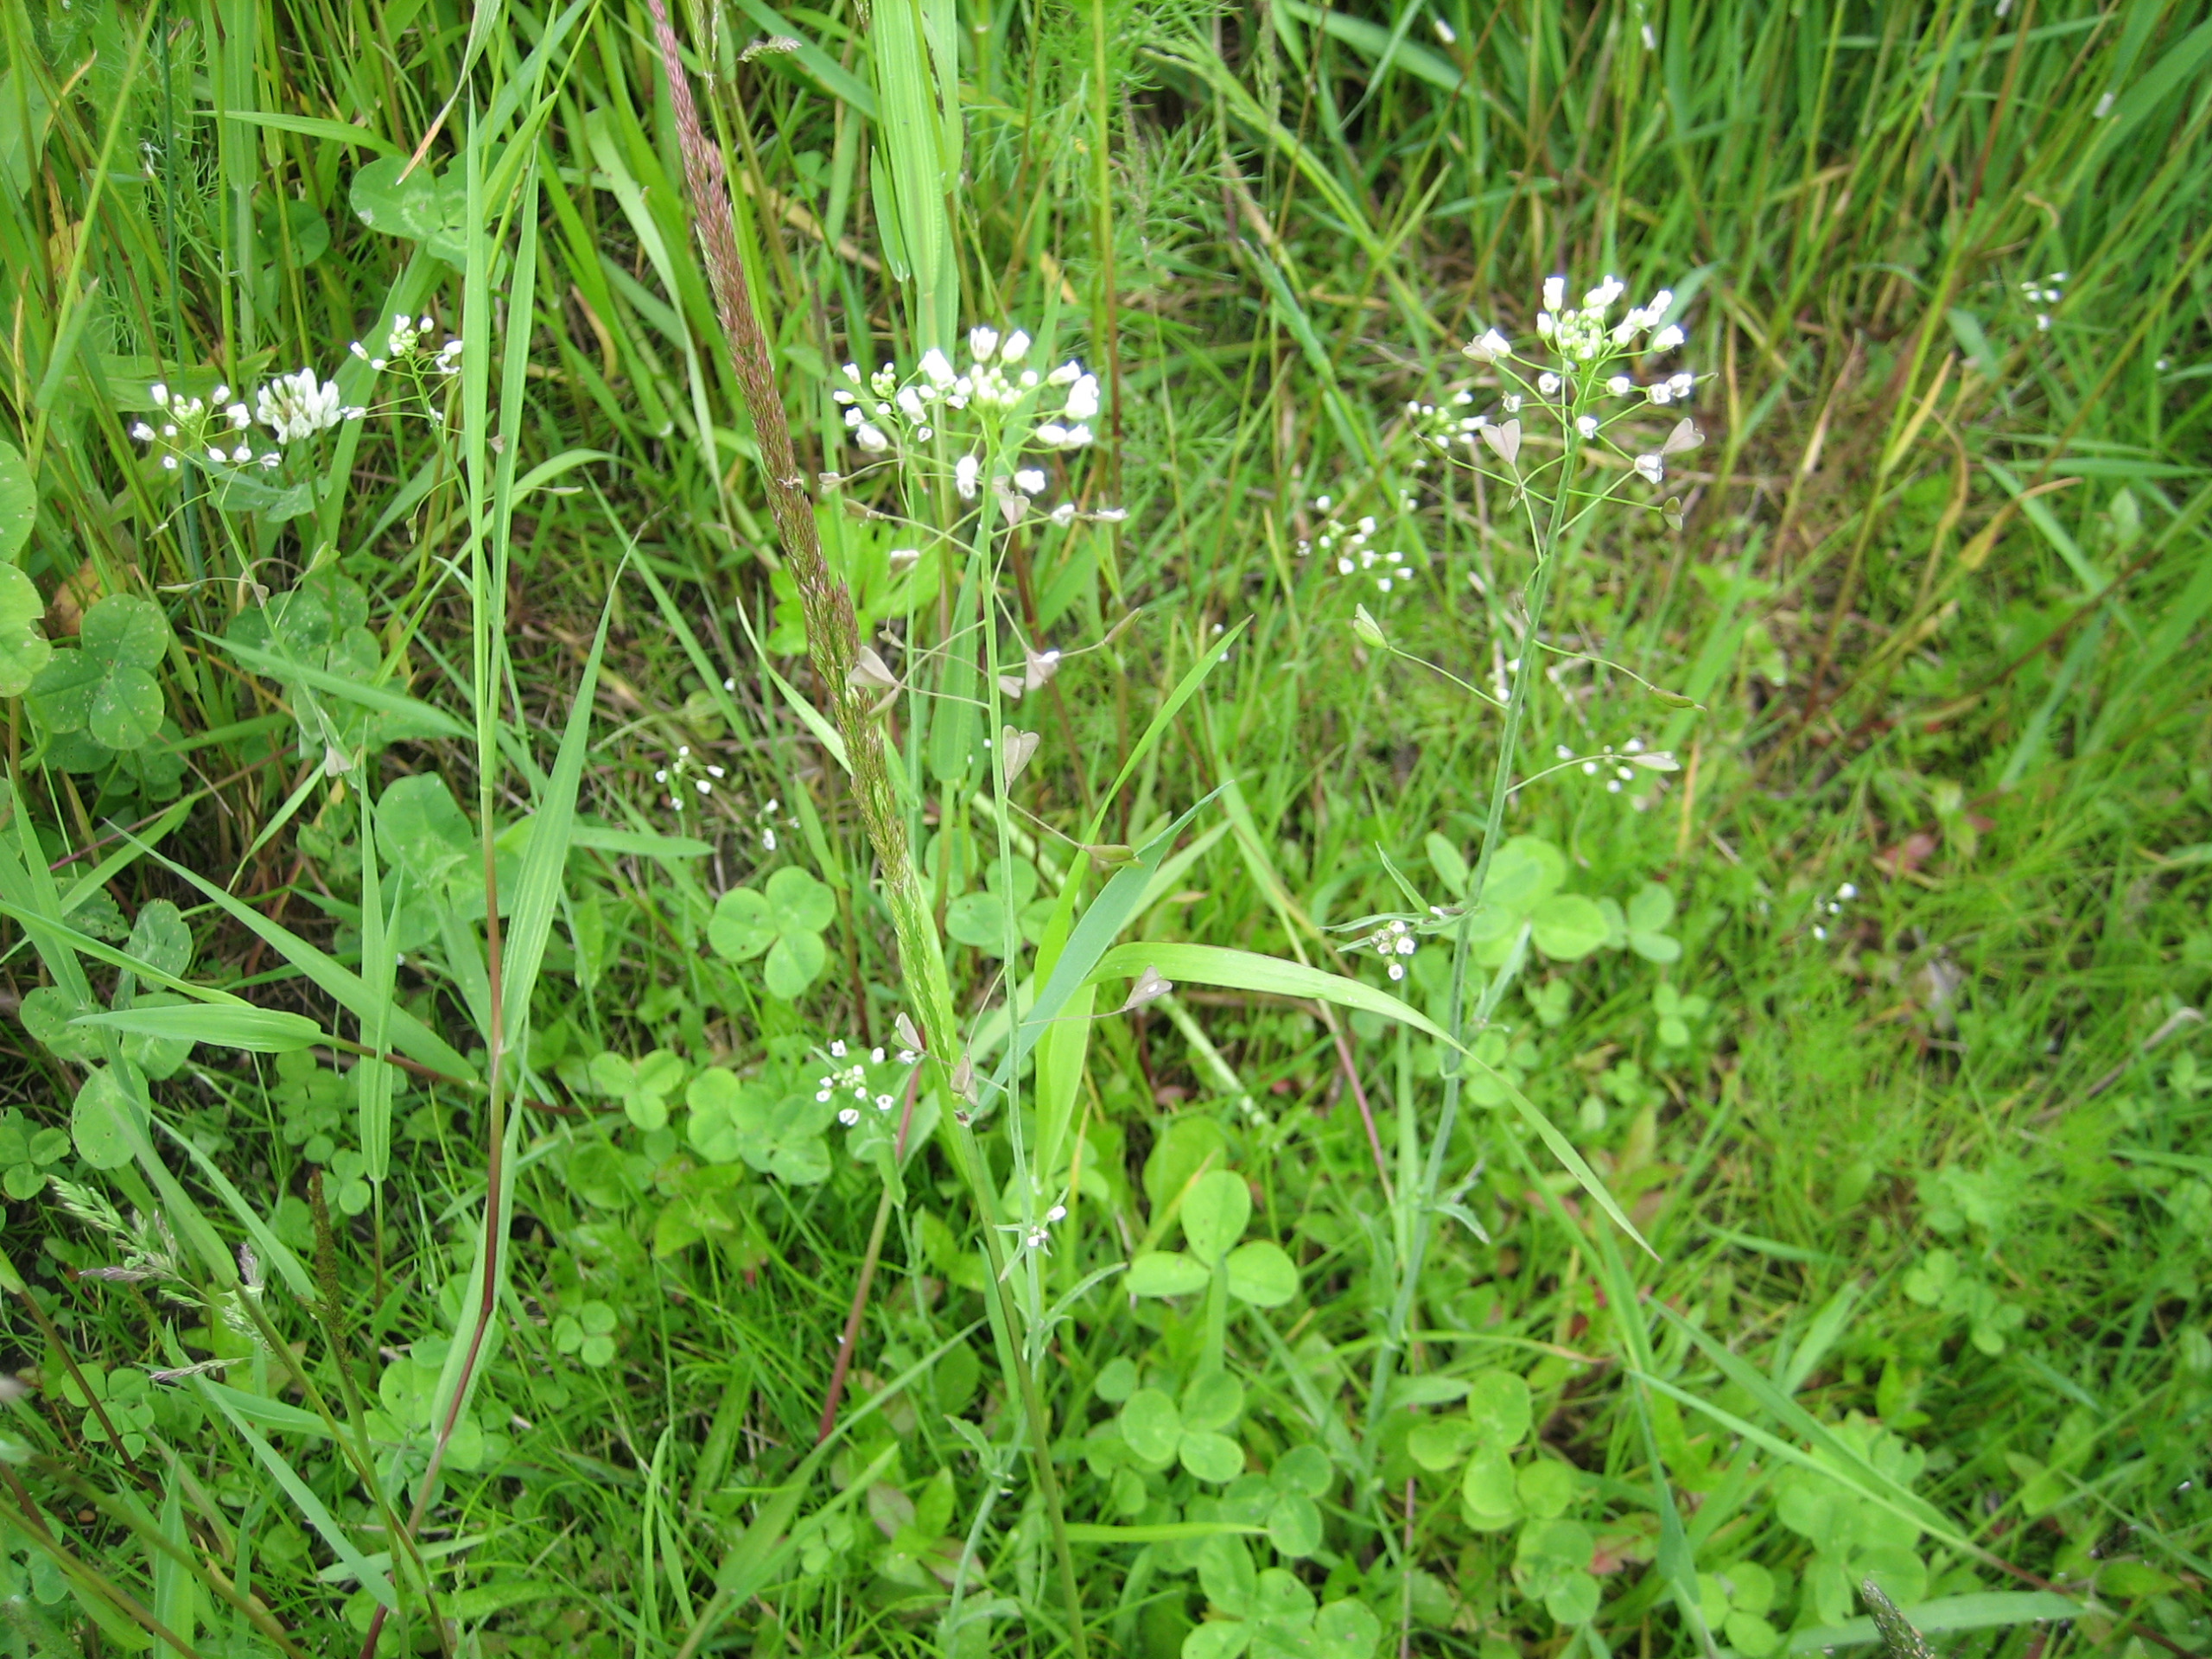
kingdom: Plantae
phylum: Tracheophyta
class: Magnoliopsida
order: Brassicales
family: Brassicaceae
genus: Capsella
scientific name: Capsella bursa-pastoris
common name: Hyrdetaske
